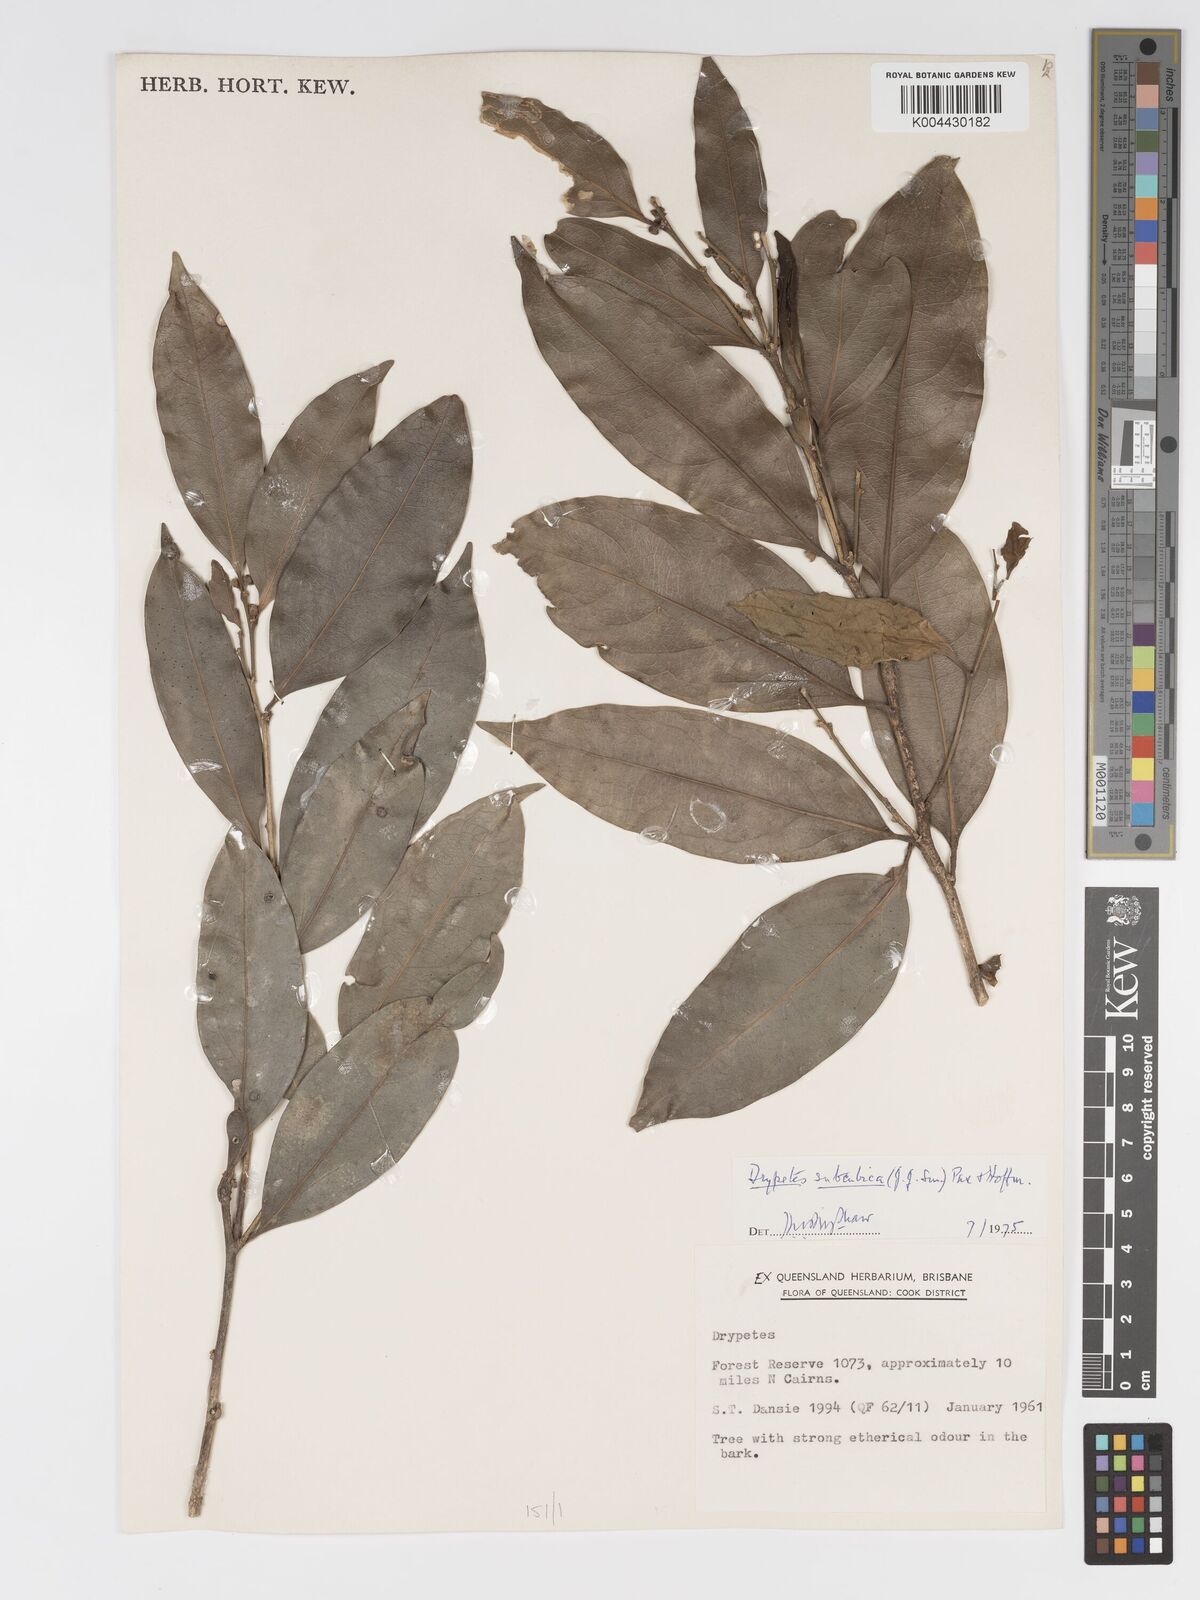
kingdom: Plantae
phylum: Tracheophyta
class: Magnoliopsida
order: Malpighiales
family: Putranjivaceae
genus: Drypetes
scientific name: Drypetes subcubica
